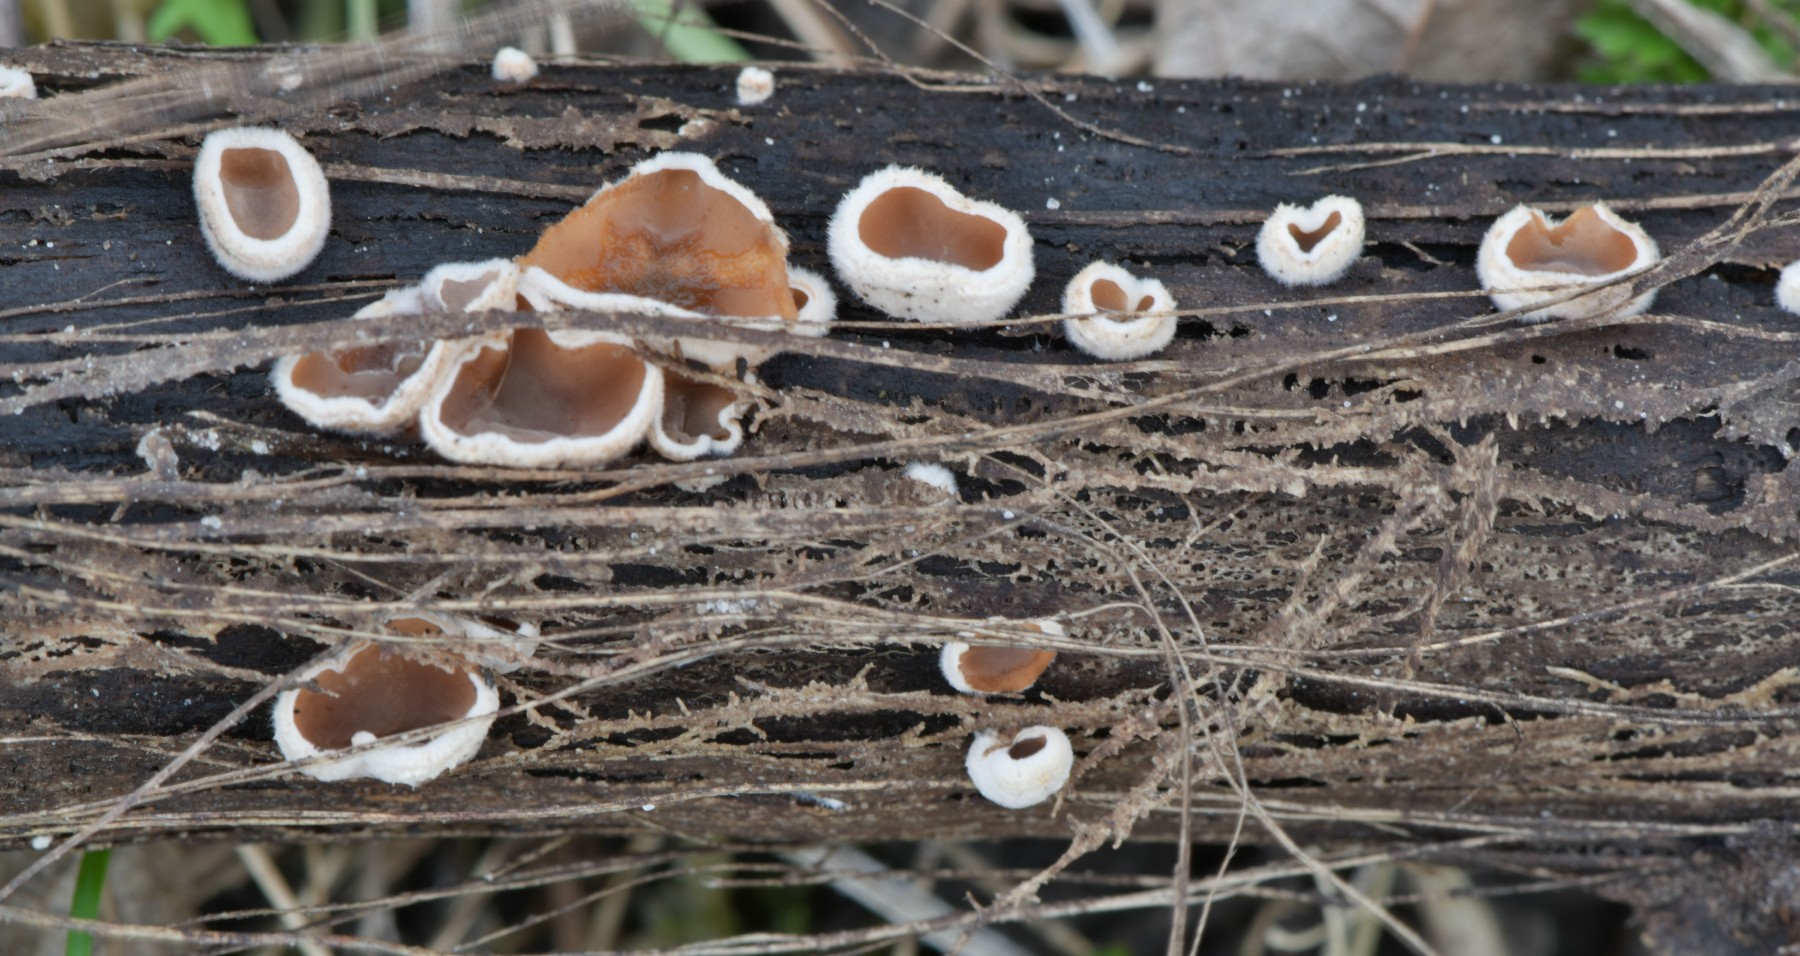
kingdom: Fungi
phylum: Basidiomycota
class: Agaricomycetes
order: Agaricales
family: Schizophyllaceae
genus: Schizophyllum
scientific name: Schizophyllum amplum
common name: poppel-hængeøre
